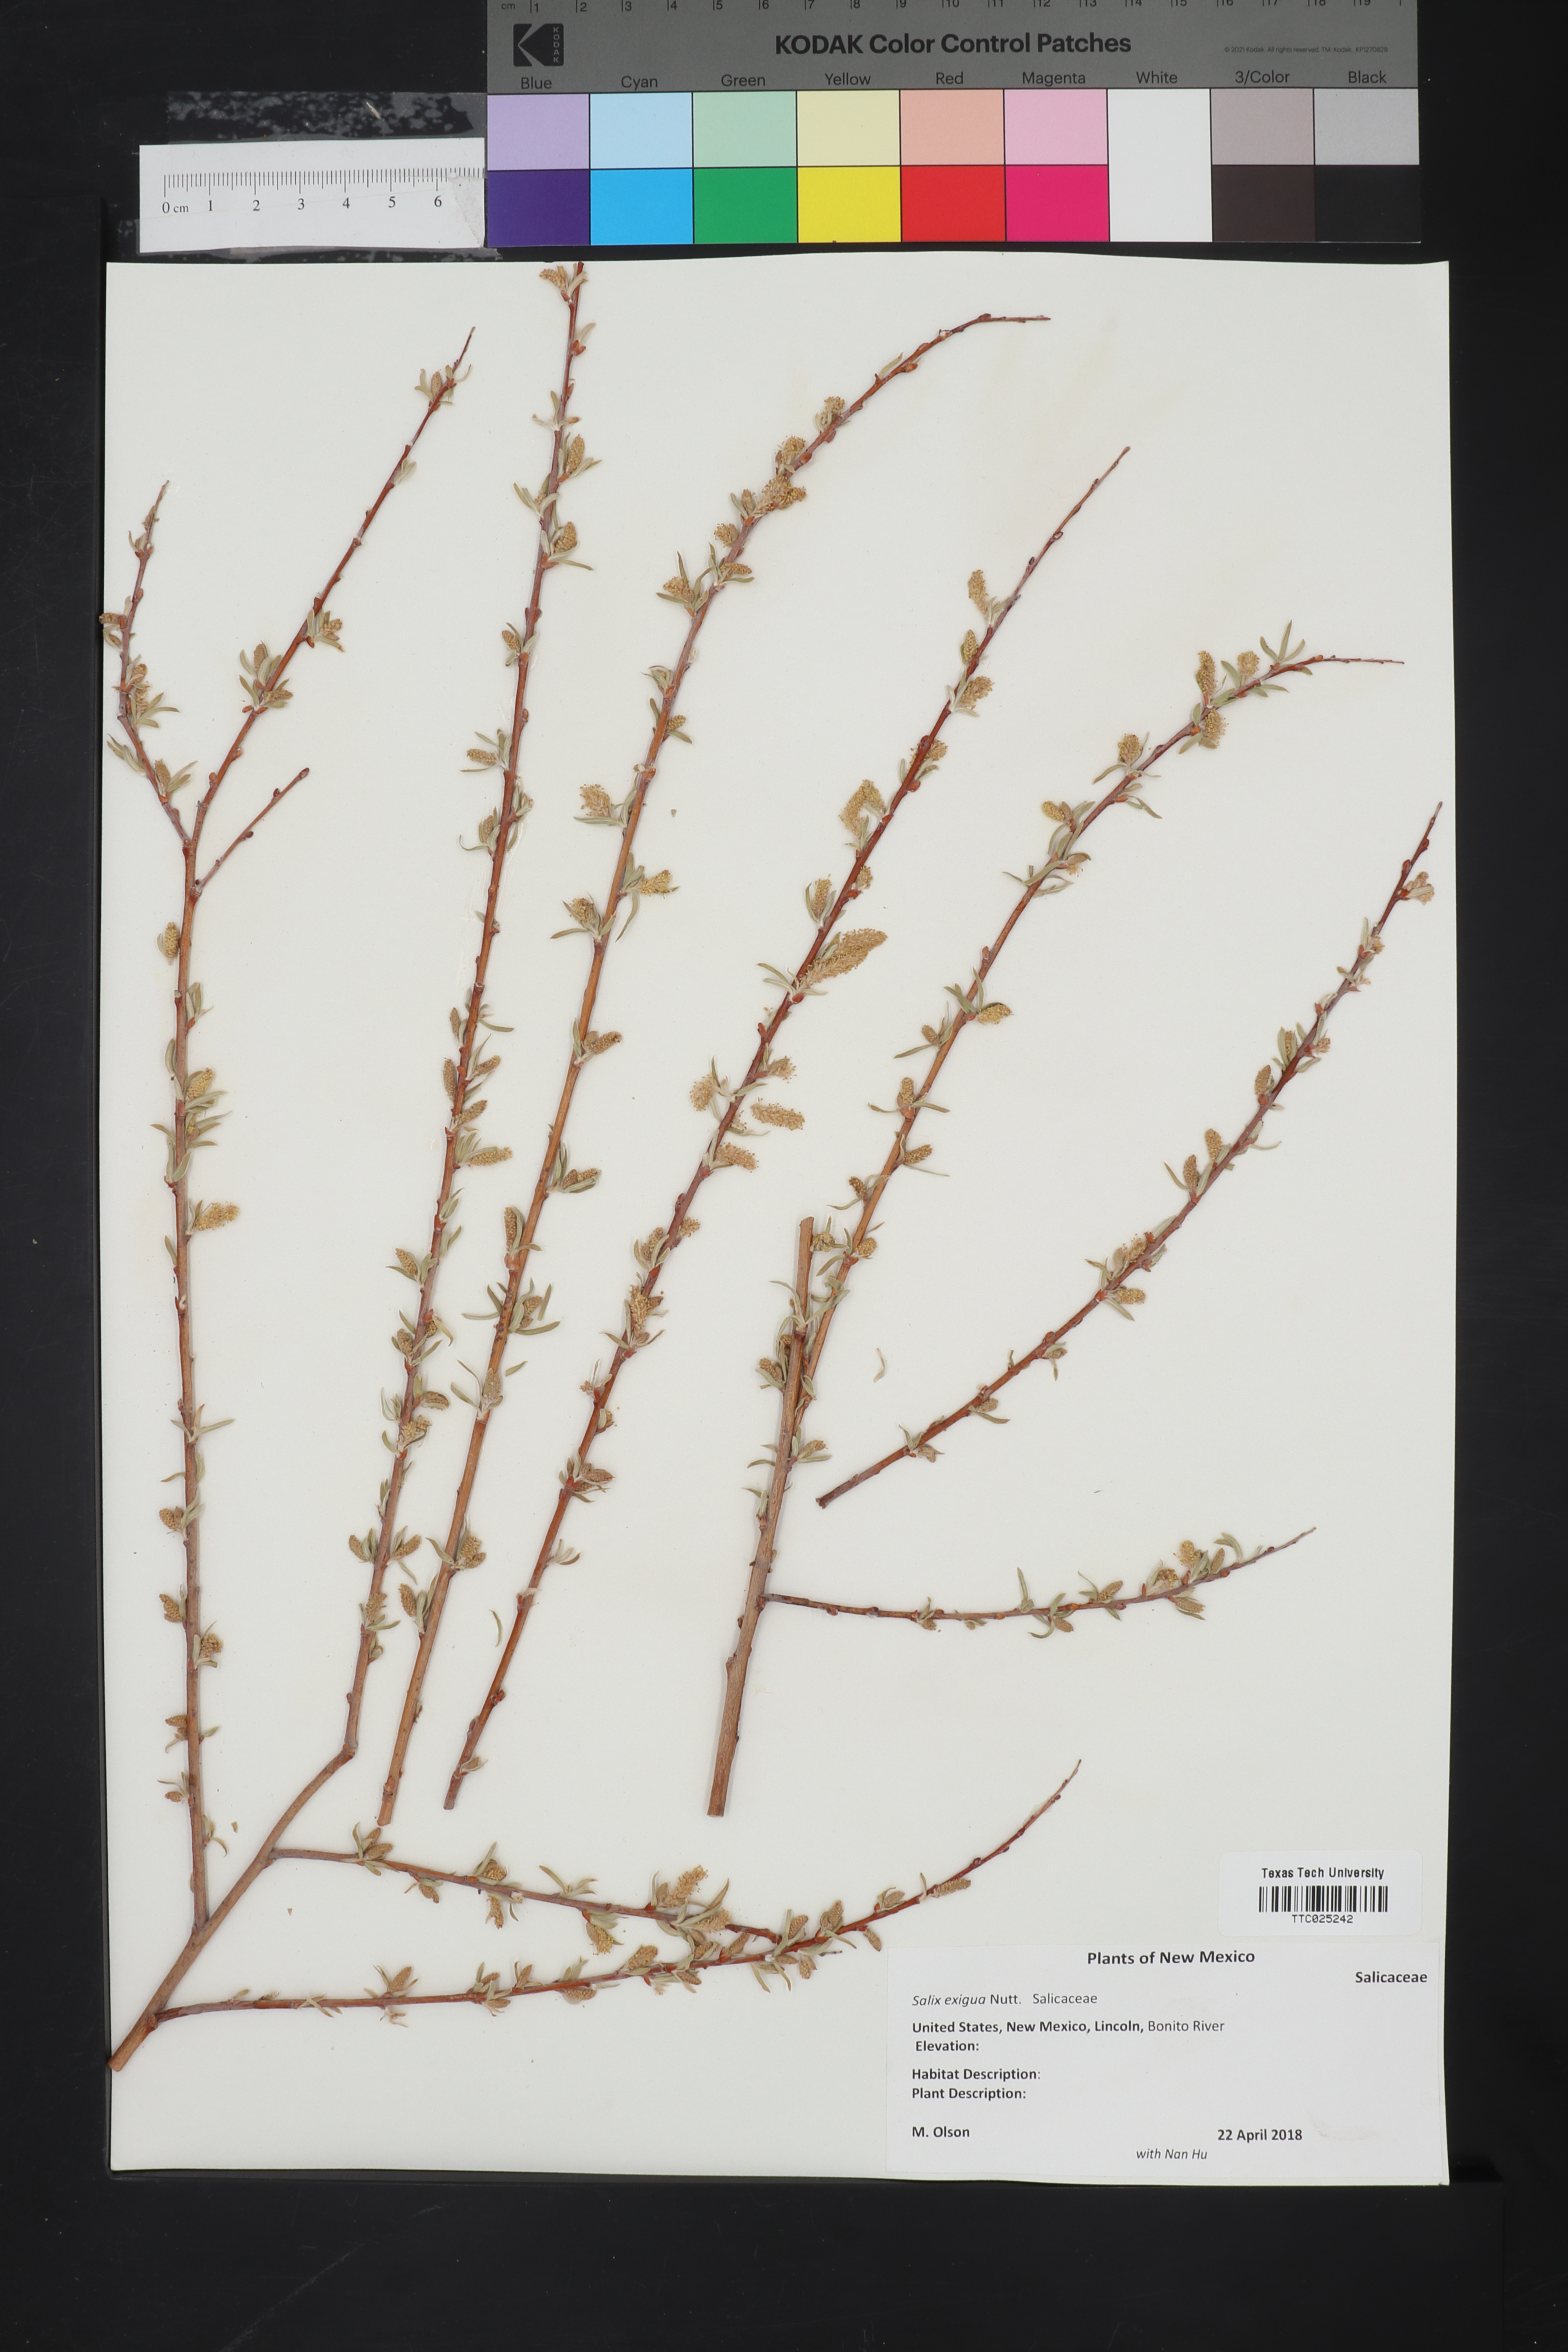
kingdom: Plantae
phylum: Tracheophyta
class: Magnoliopsida
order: Malpighiales
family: Salicaceae
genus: Salix
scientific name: Salix exigua
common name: Coyote willow
